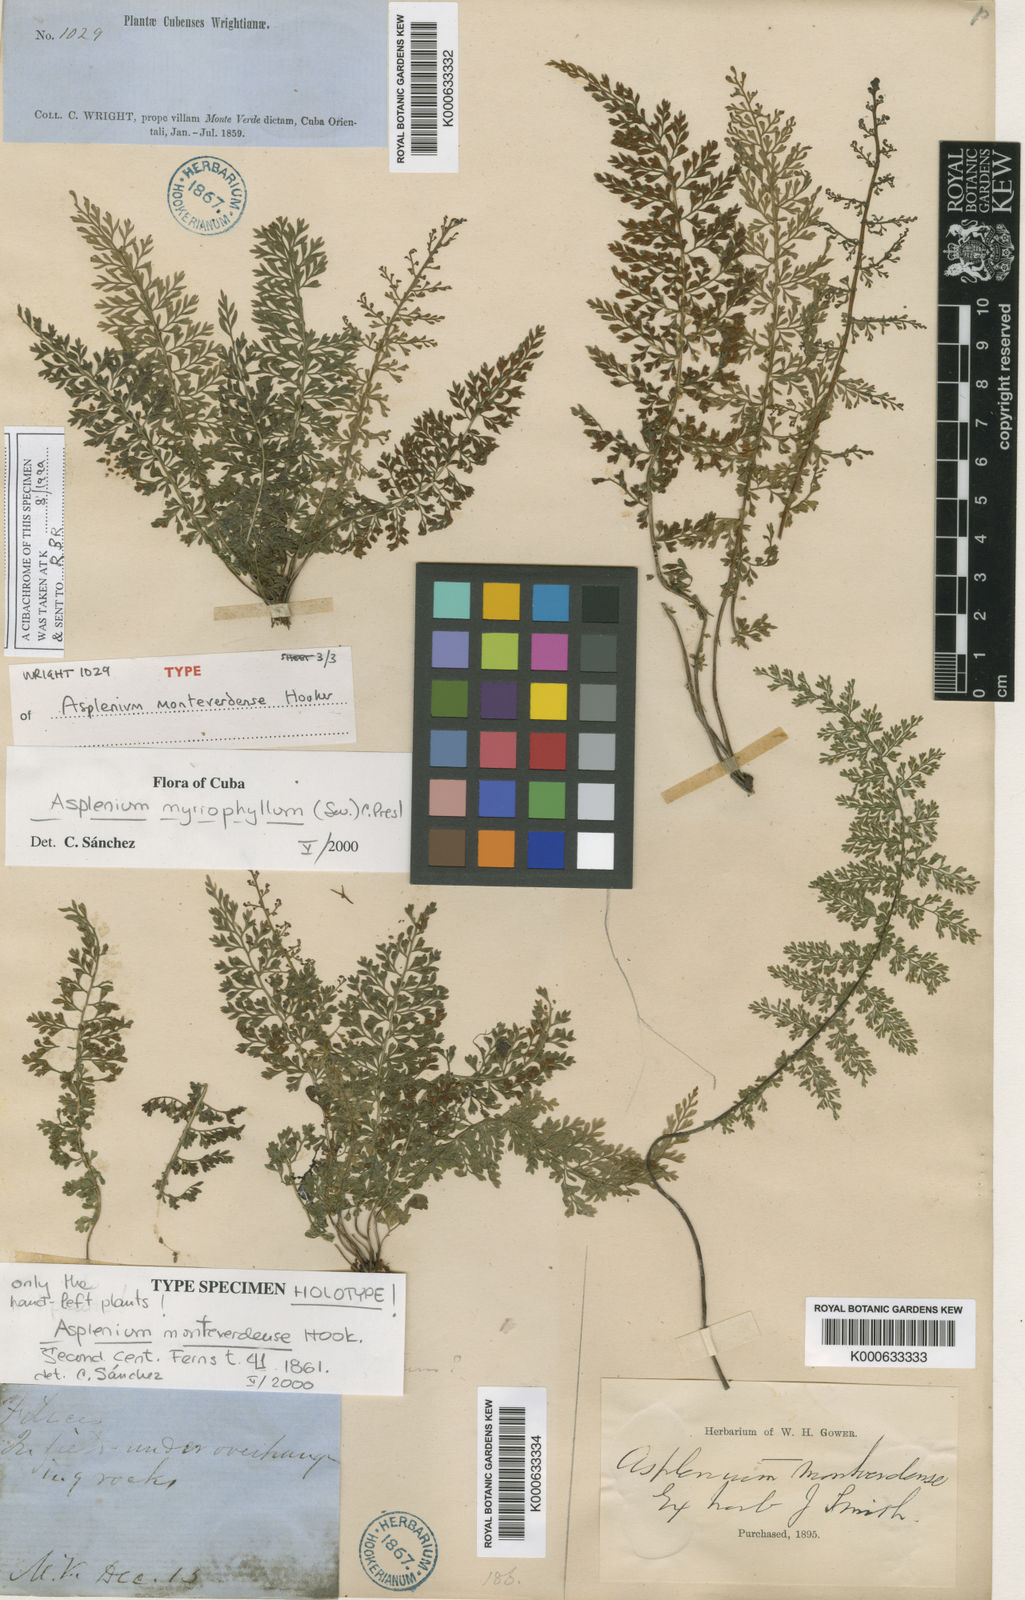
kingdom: Plantae
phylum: Tracheophyta
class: Polypodiopsida
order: Polypodiales
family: Aspleniaceae
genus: Asplenium
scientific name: Asplenium myriophyllum
